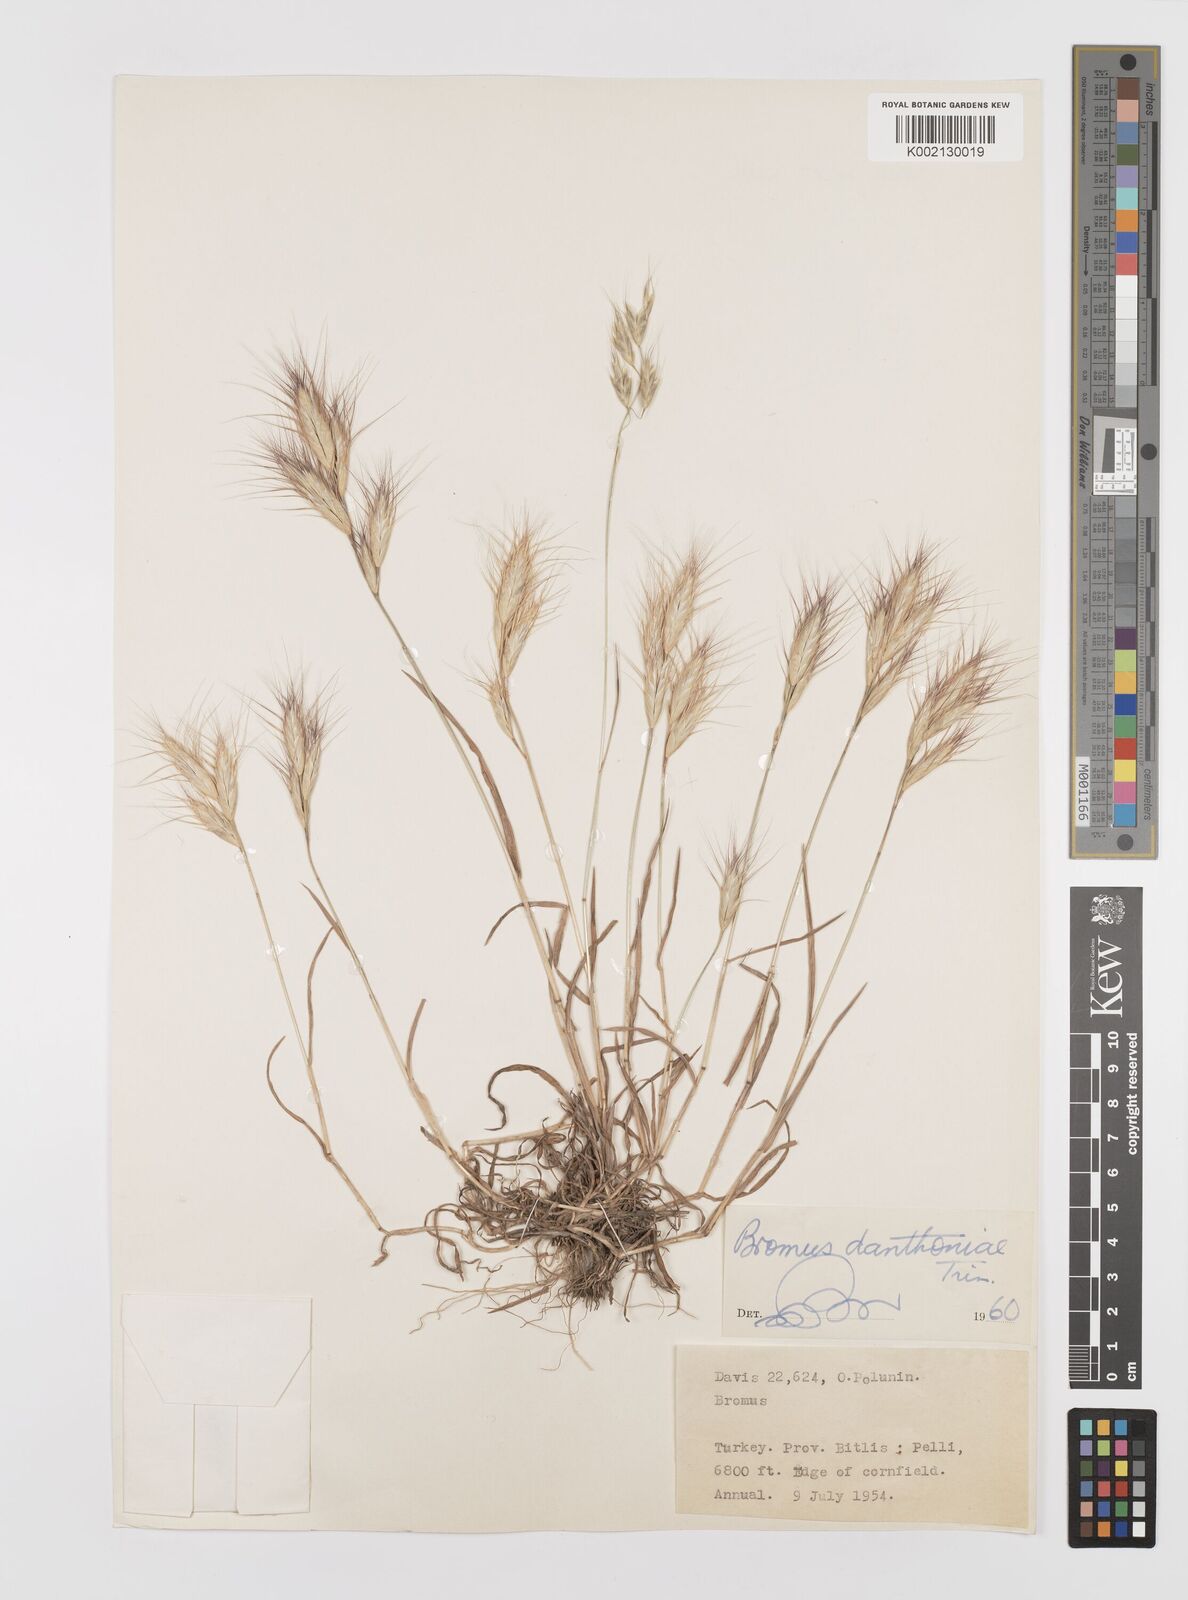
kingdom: Plantae
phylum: Tracheophyta
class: Liliopsida
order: Poales
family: Poaceae
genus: Bromus
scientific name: Bromus danthoniae
